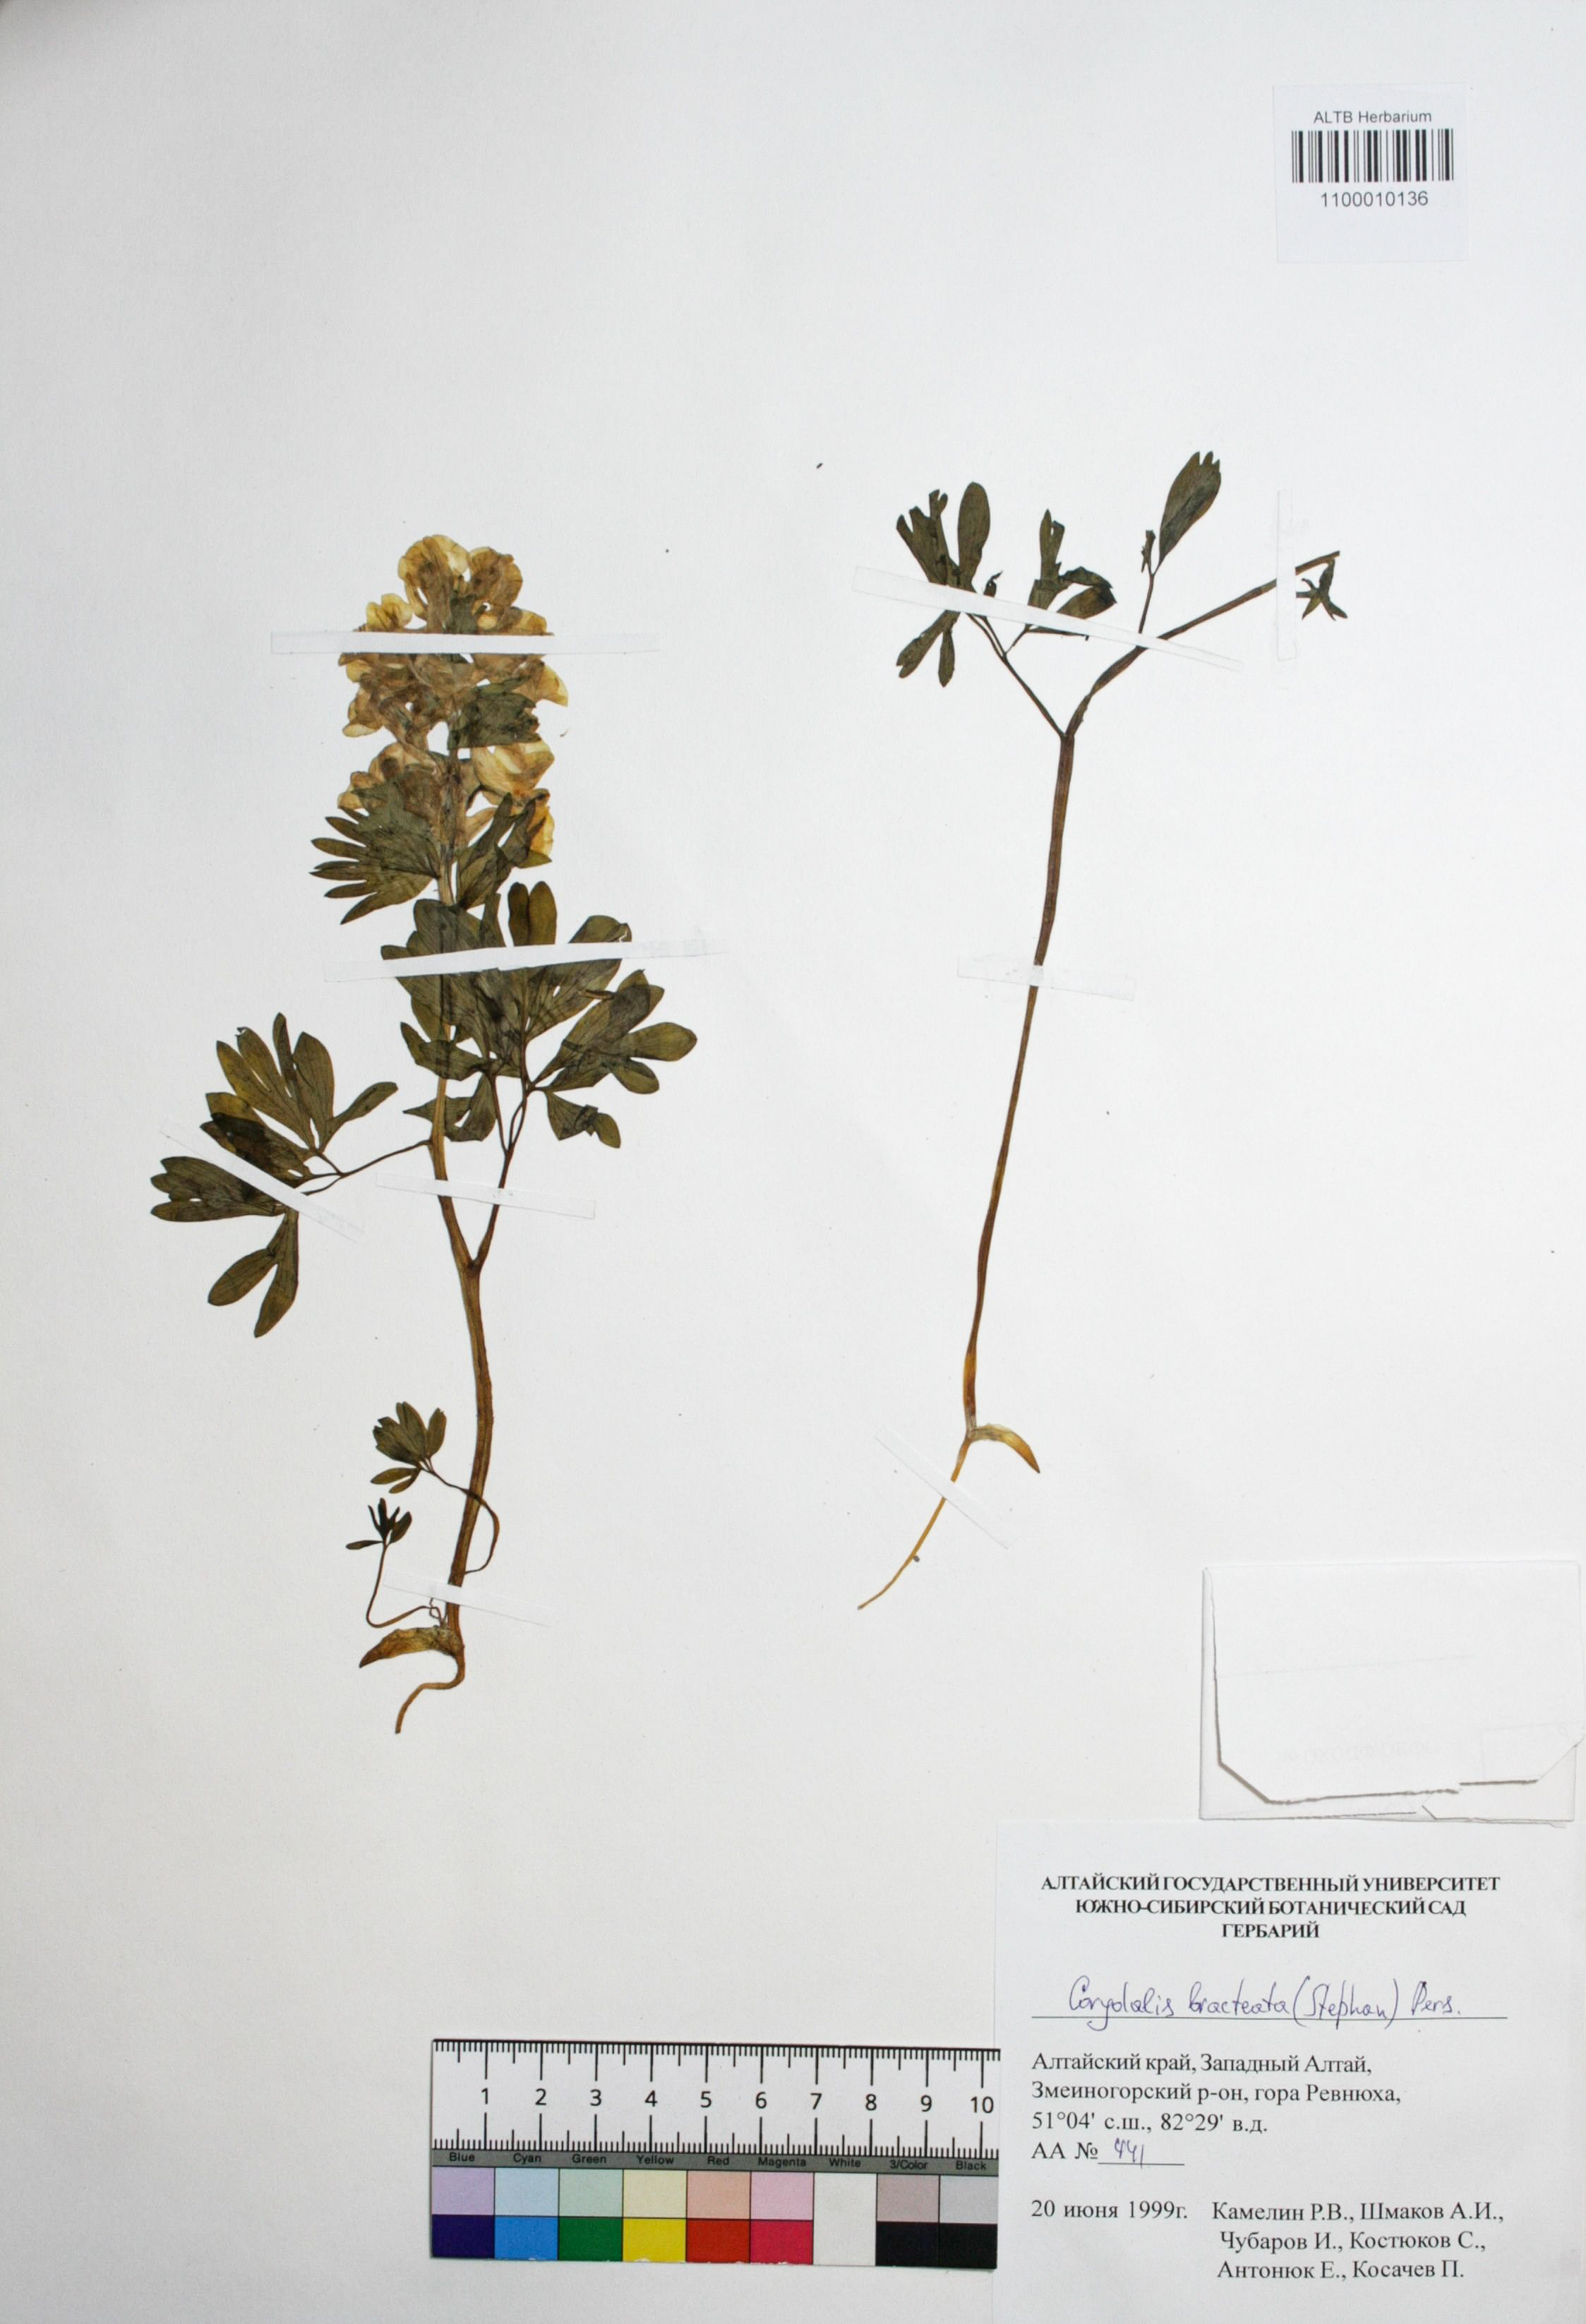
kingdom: Plantae
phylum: Tracheophyta
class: Magnoliopsida
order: Ranunculales
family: Papaveraceae
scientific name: Papaveraceae
